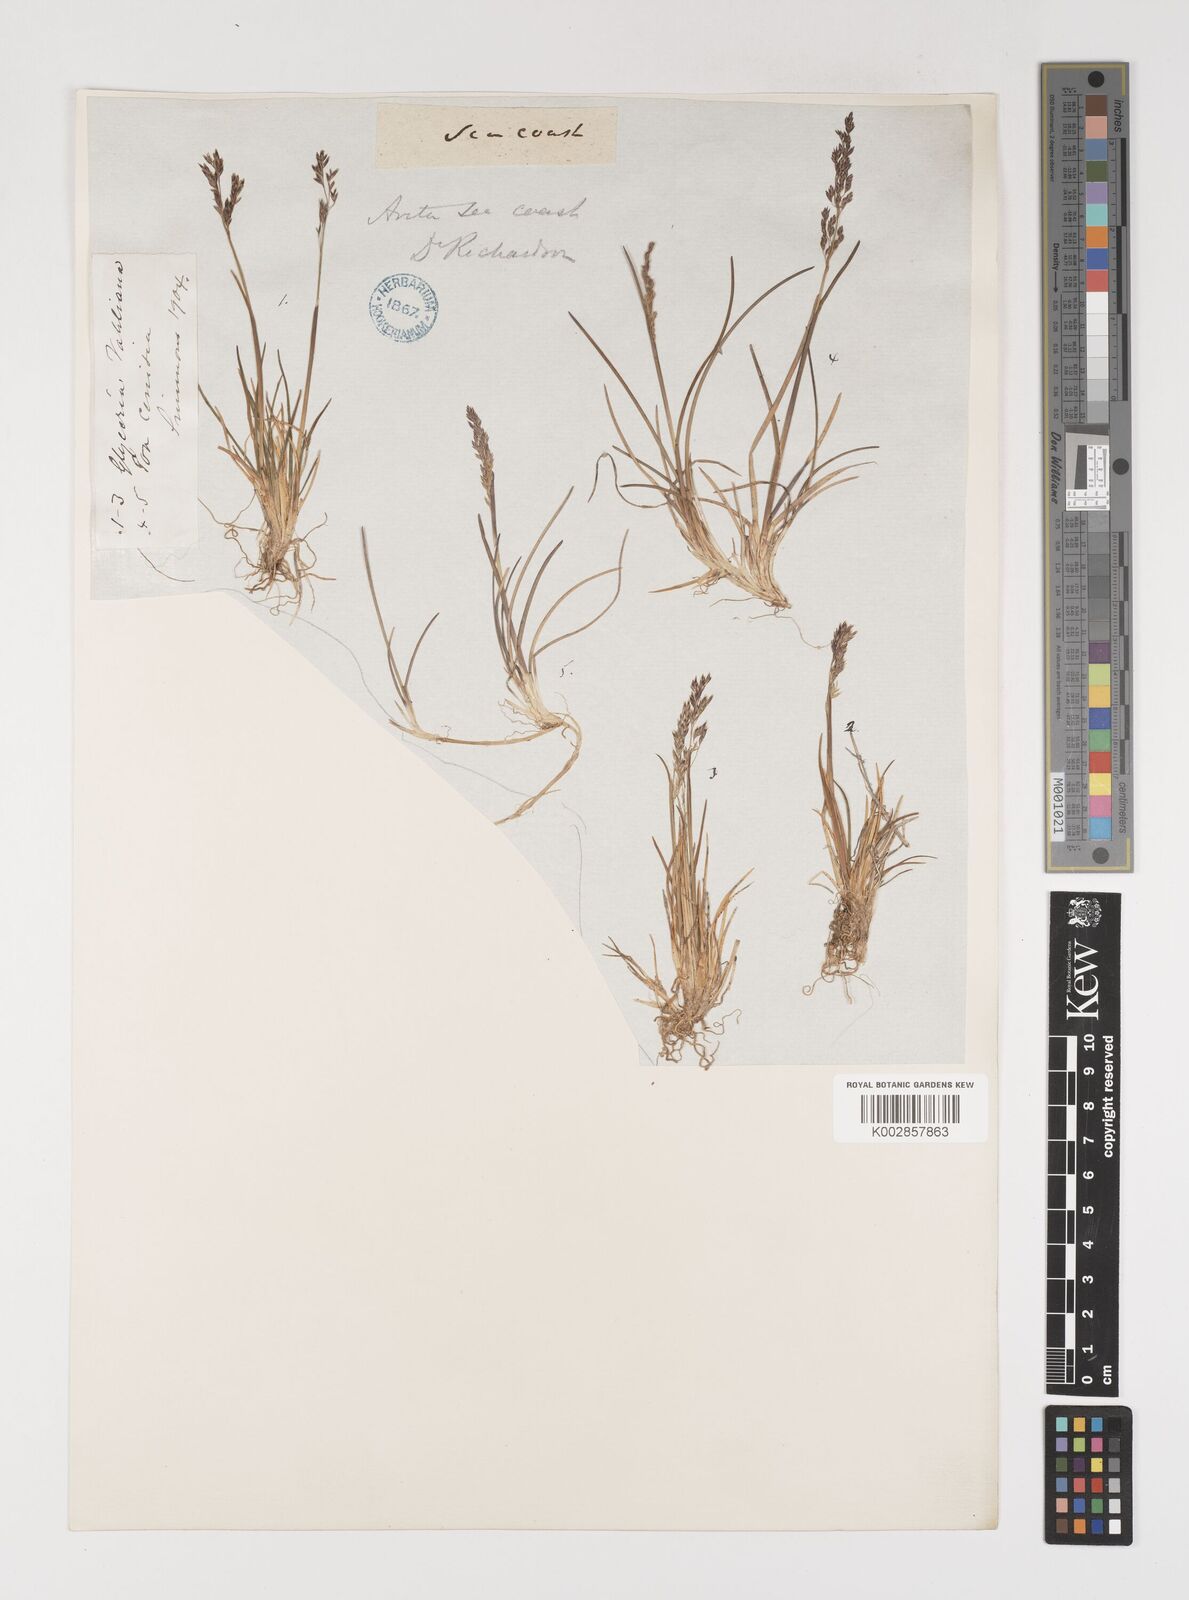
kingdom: Plantae
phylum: Tracheophyta
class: Liliopsida
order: Poales
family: Poaceae
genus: Puccinellia
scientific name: Puccinellia vahliana
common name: Vahl's alkaligrass
